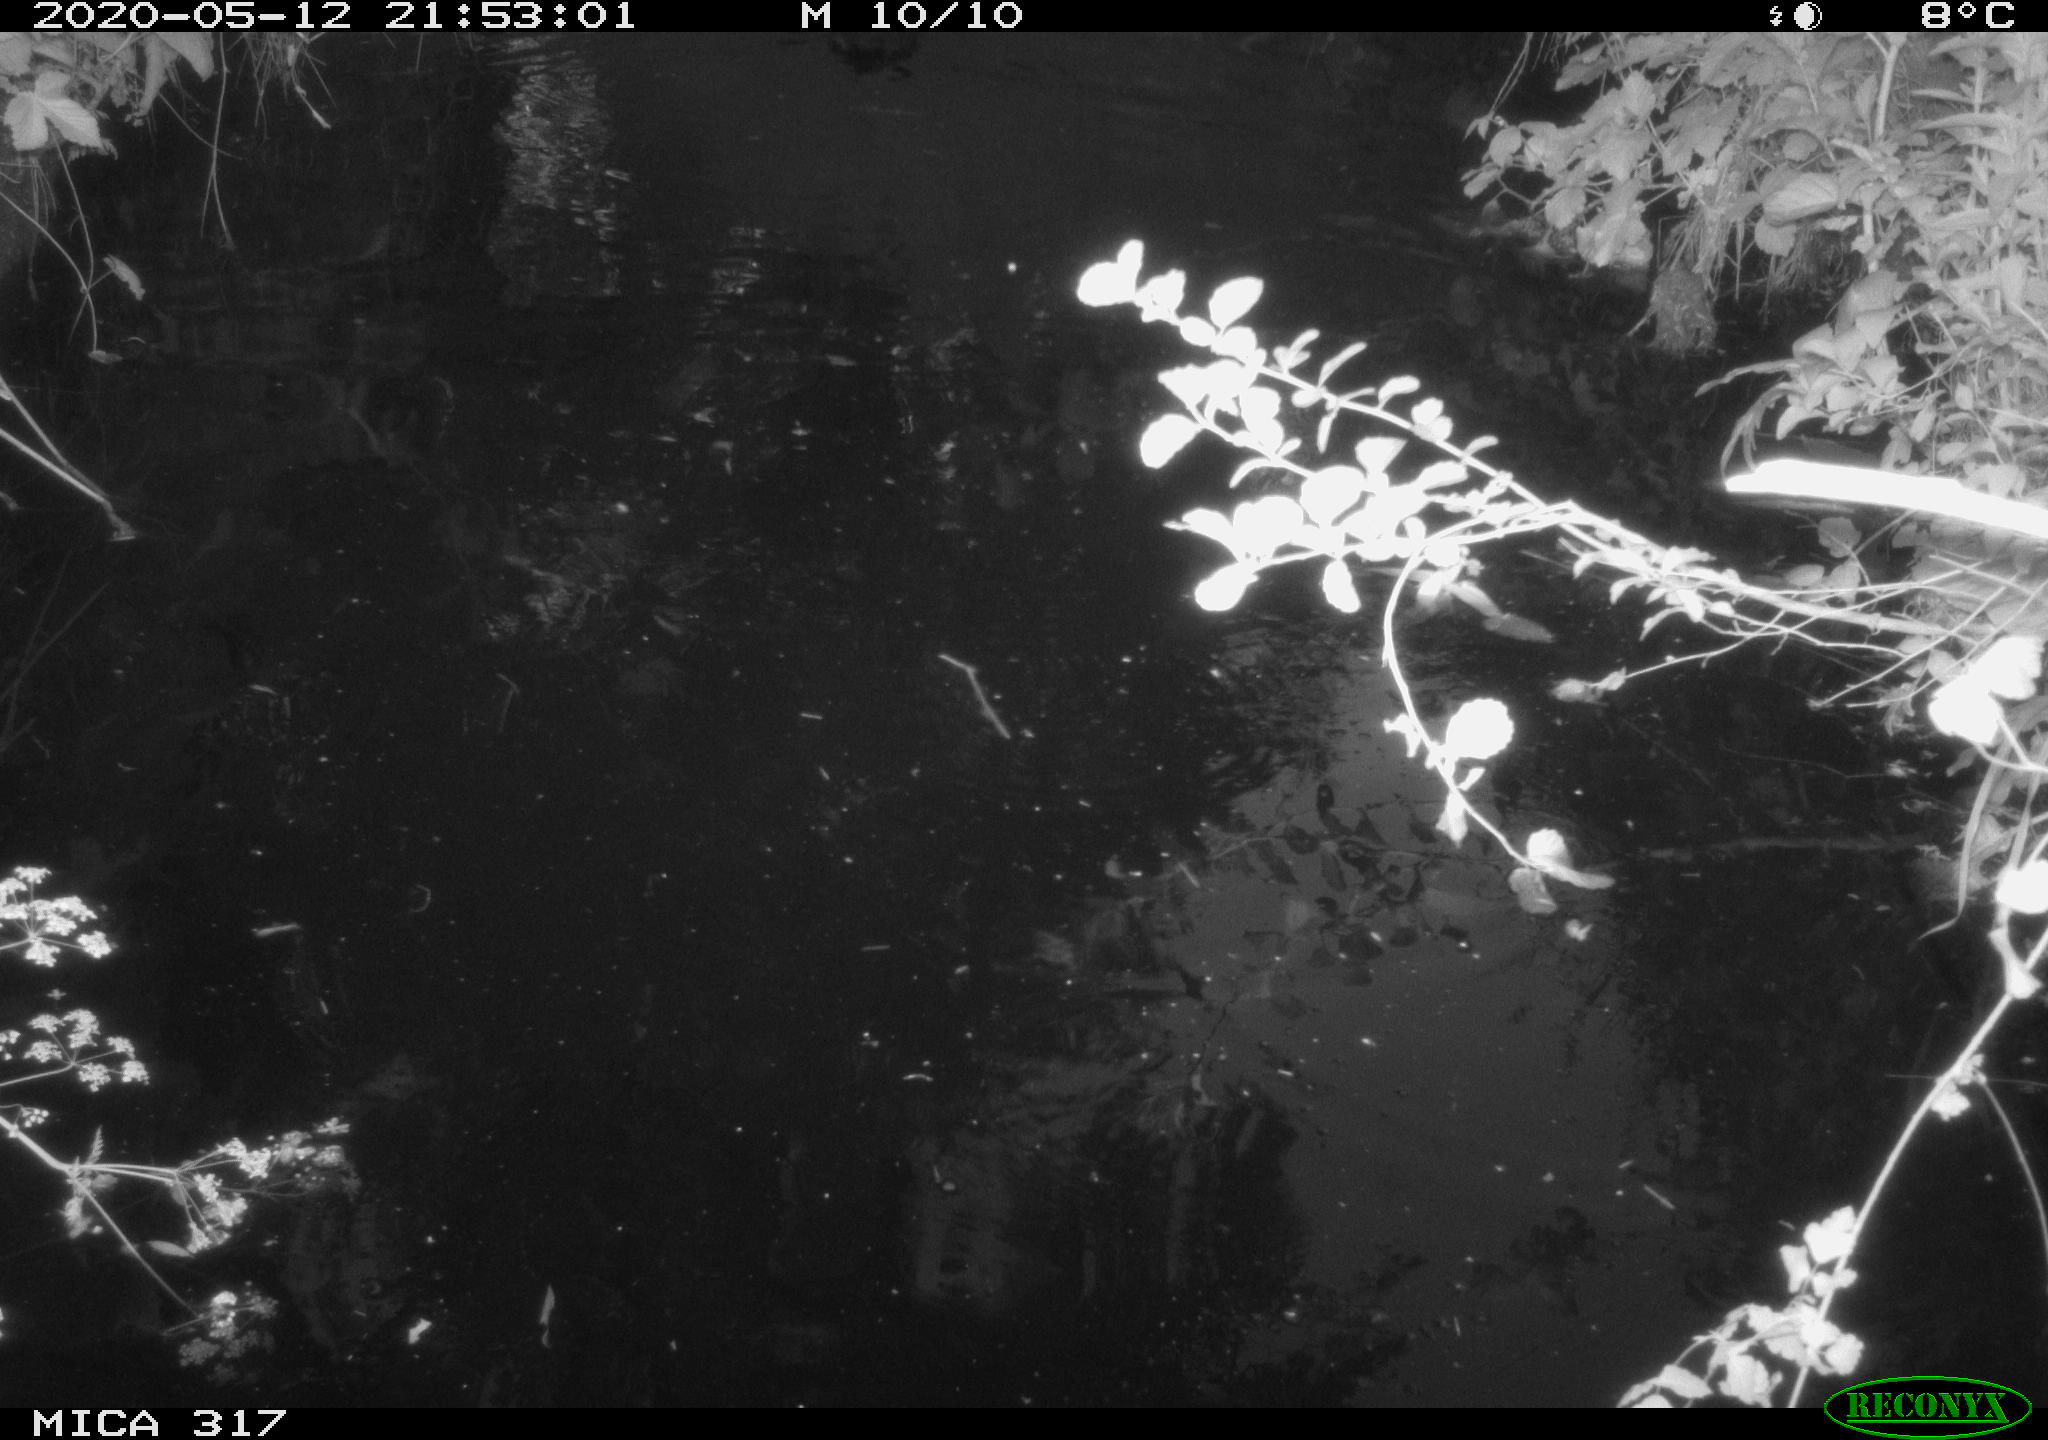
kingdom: Animalia
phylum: Chordata
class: Aves
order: Gruiformes
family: Rallidae
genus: Fulica
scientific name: Fulica atra
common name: Eurasian coot
